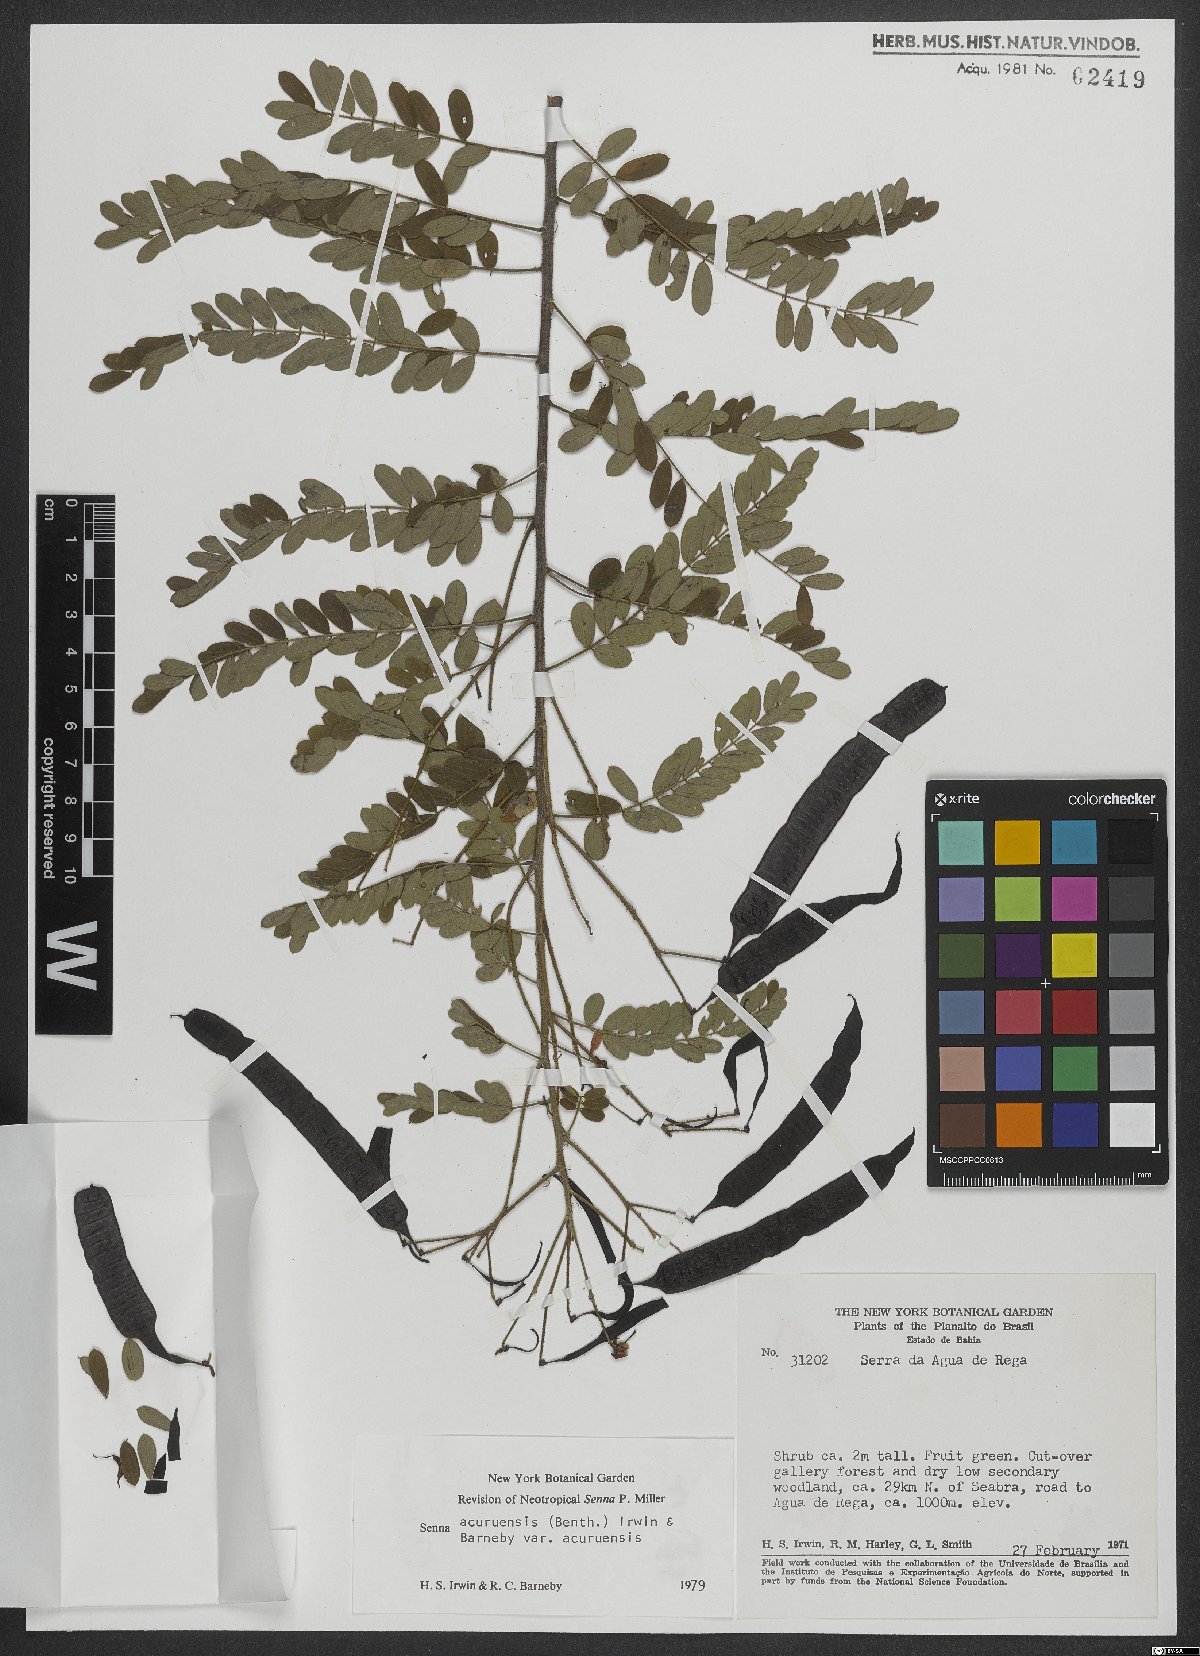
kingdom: Plantae
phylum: Tracheophyta
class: Magnoliopsida
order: Fabales
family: Fabaceae
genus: Senna
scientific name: Senna acuruensis
